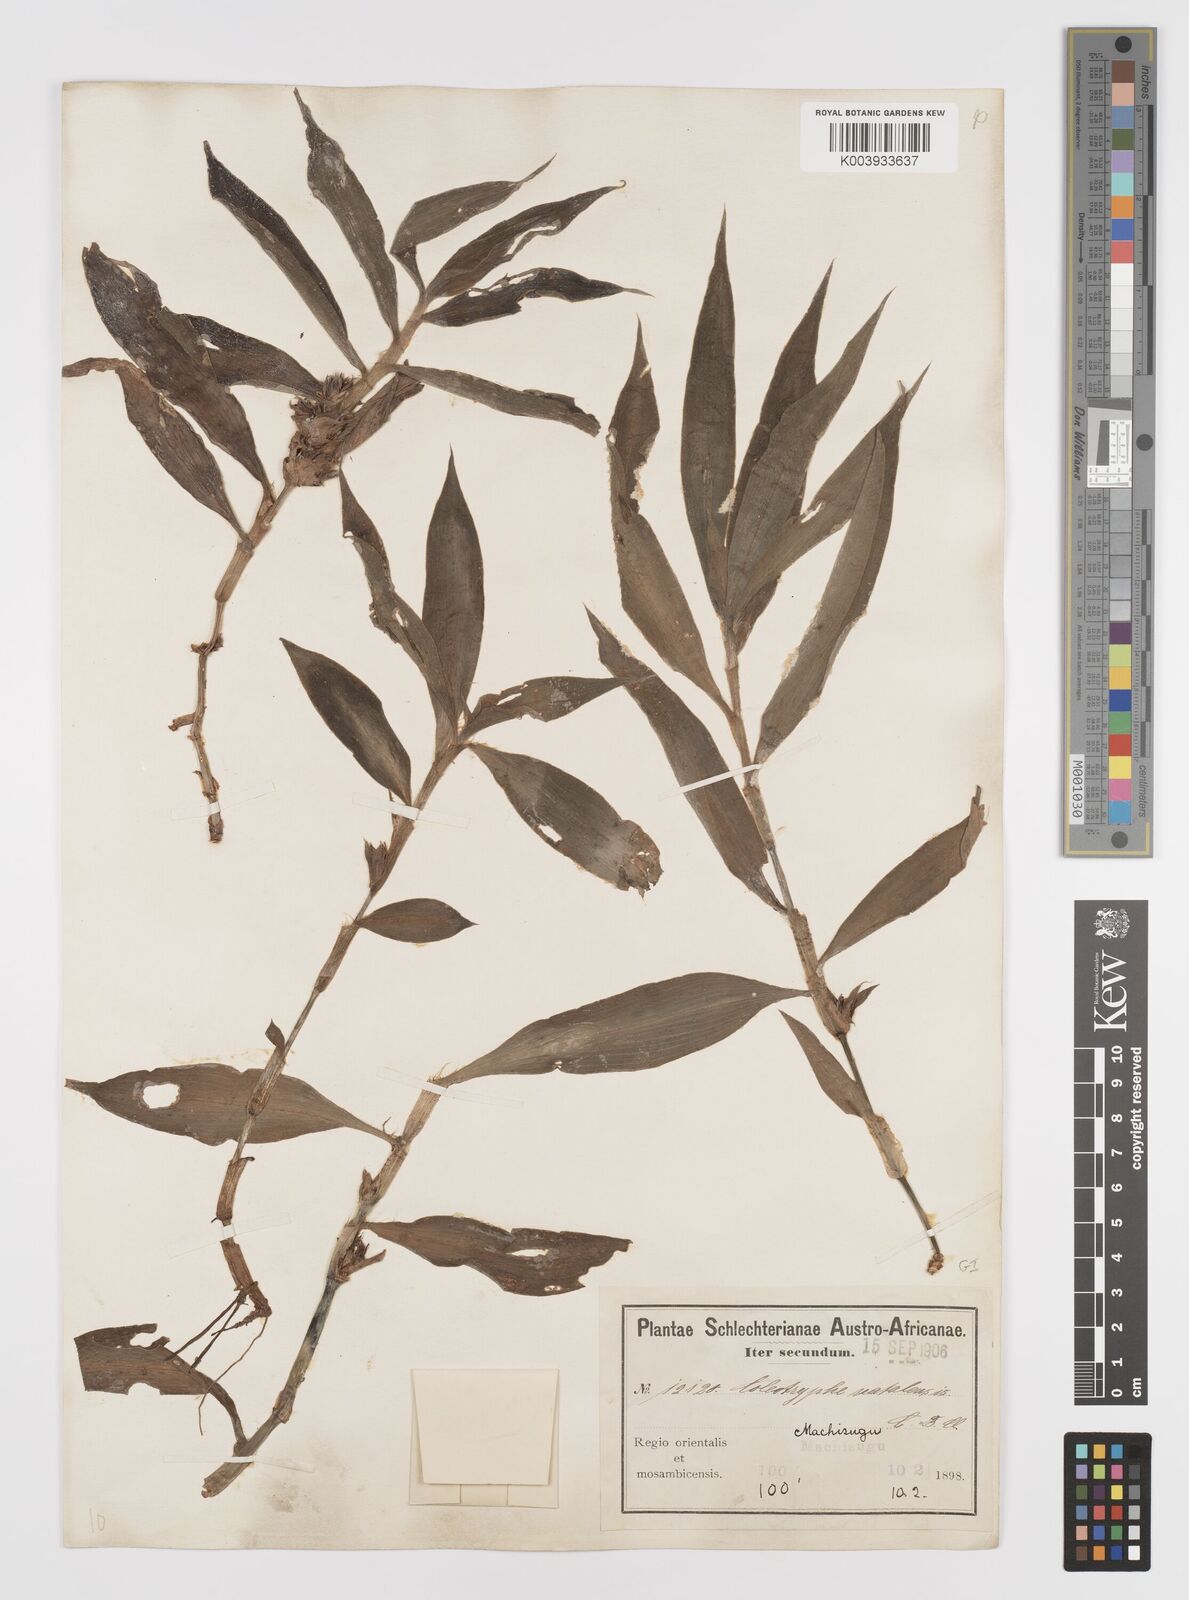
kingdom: Plantae
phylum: Tracheophyta
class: Liliopsida
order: Commelinales
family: Commelinaceae
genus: Coleotrype
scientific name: Coleotrype natalensis
